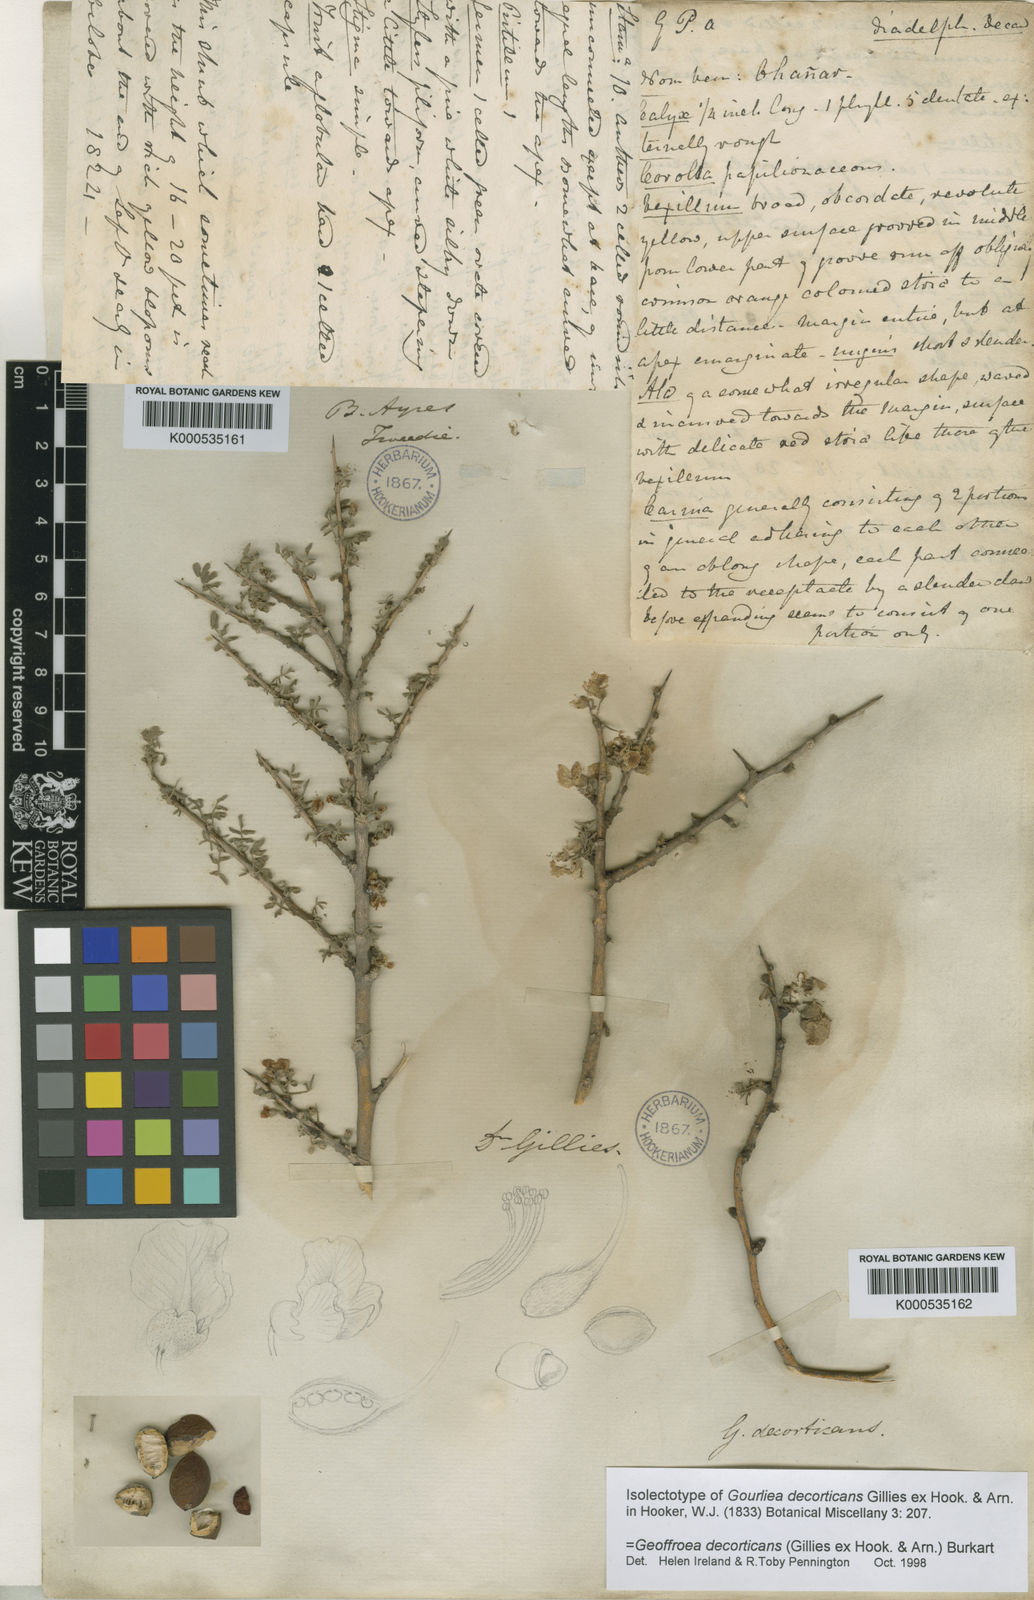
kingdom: Plantae
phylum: Tracheophyta
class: Magnoliopsida
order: Fabales
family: Fabaceae
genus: Geoffroea
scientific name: Geoffroea decorticans
